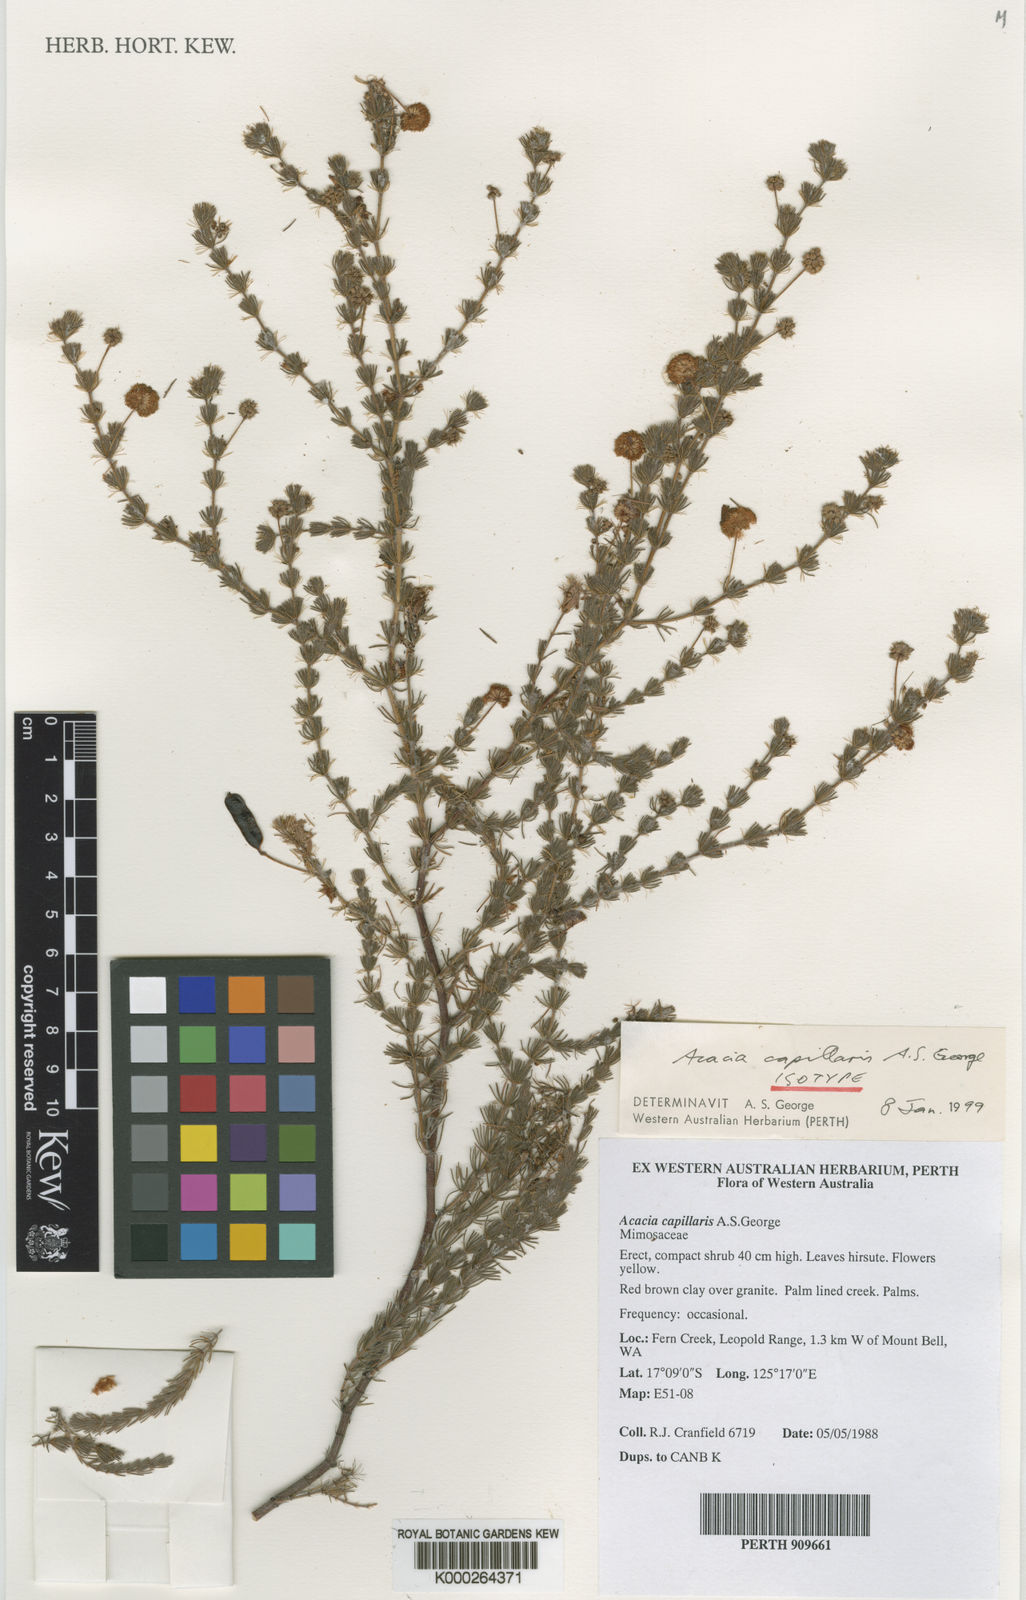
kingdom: Plantae
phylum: Tracheophyta
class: Magnoliopsida
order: Fabales
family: Fabaceae
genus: Acacia
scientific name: Acacia
